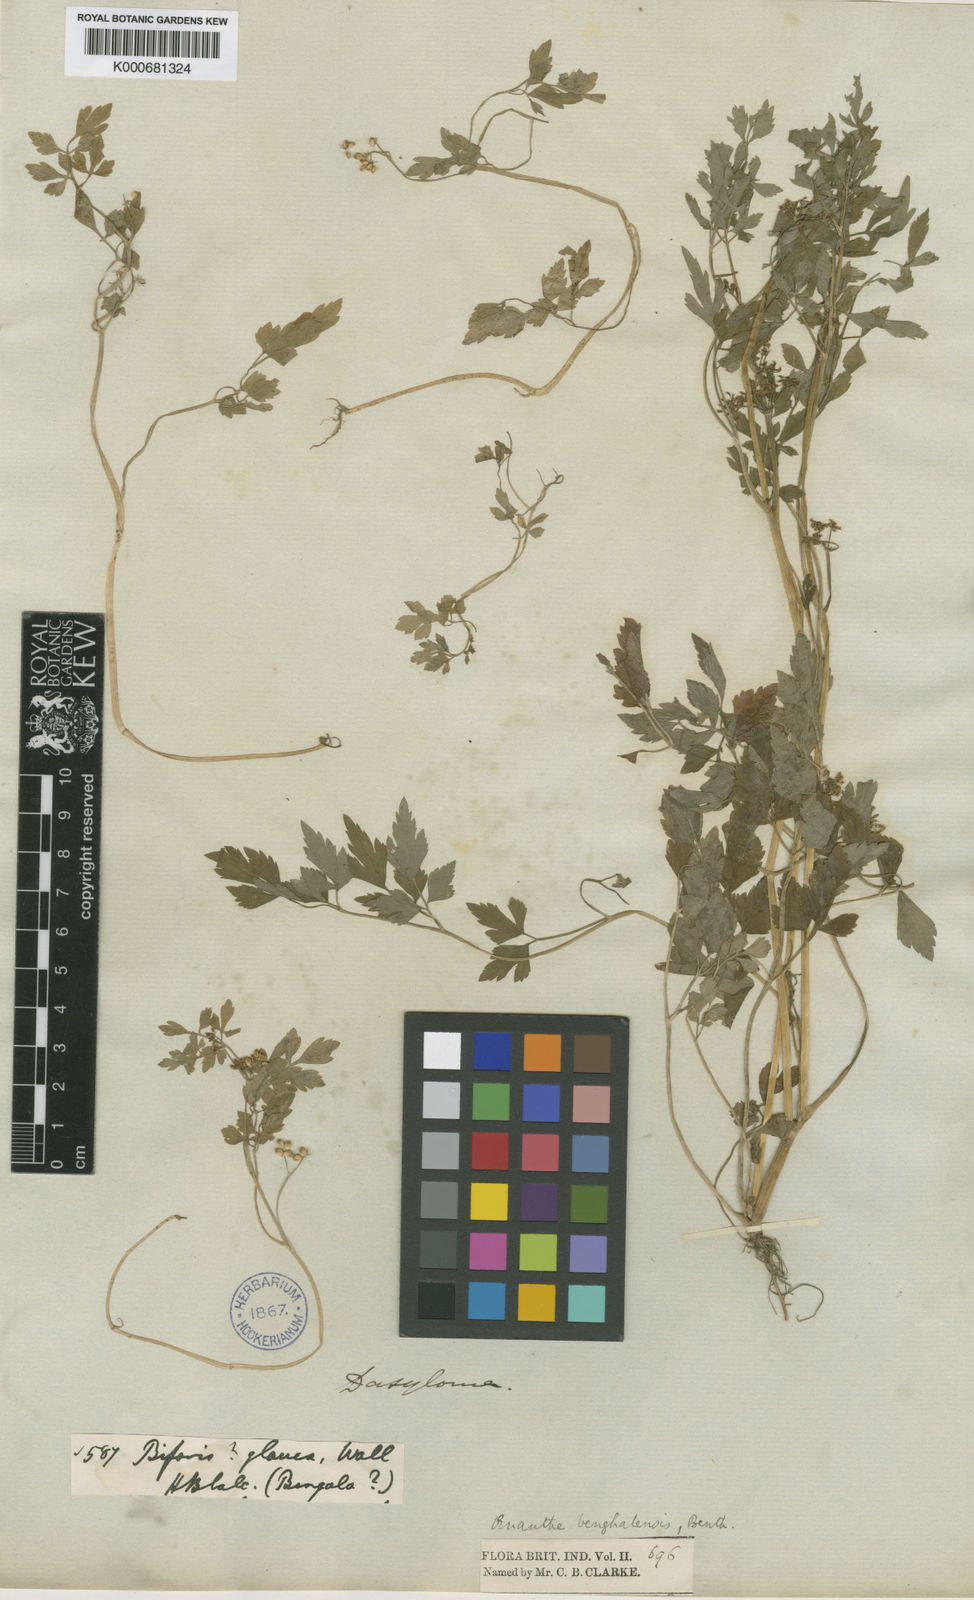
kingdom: Plantae
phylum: Tracheophyta
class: Magnoliopsida
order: Apiales
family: Apiaceae
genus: Oenanthe
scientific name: Oenanthe
